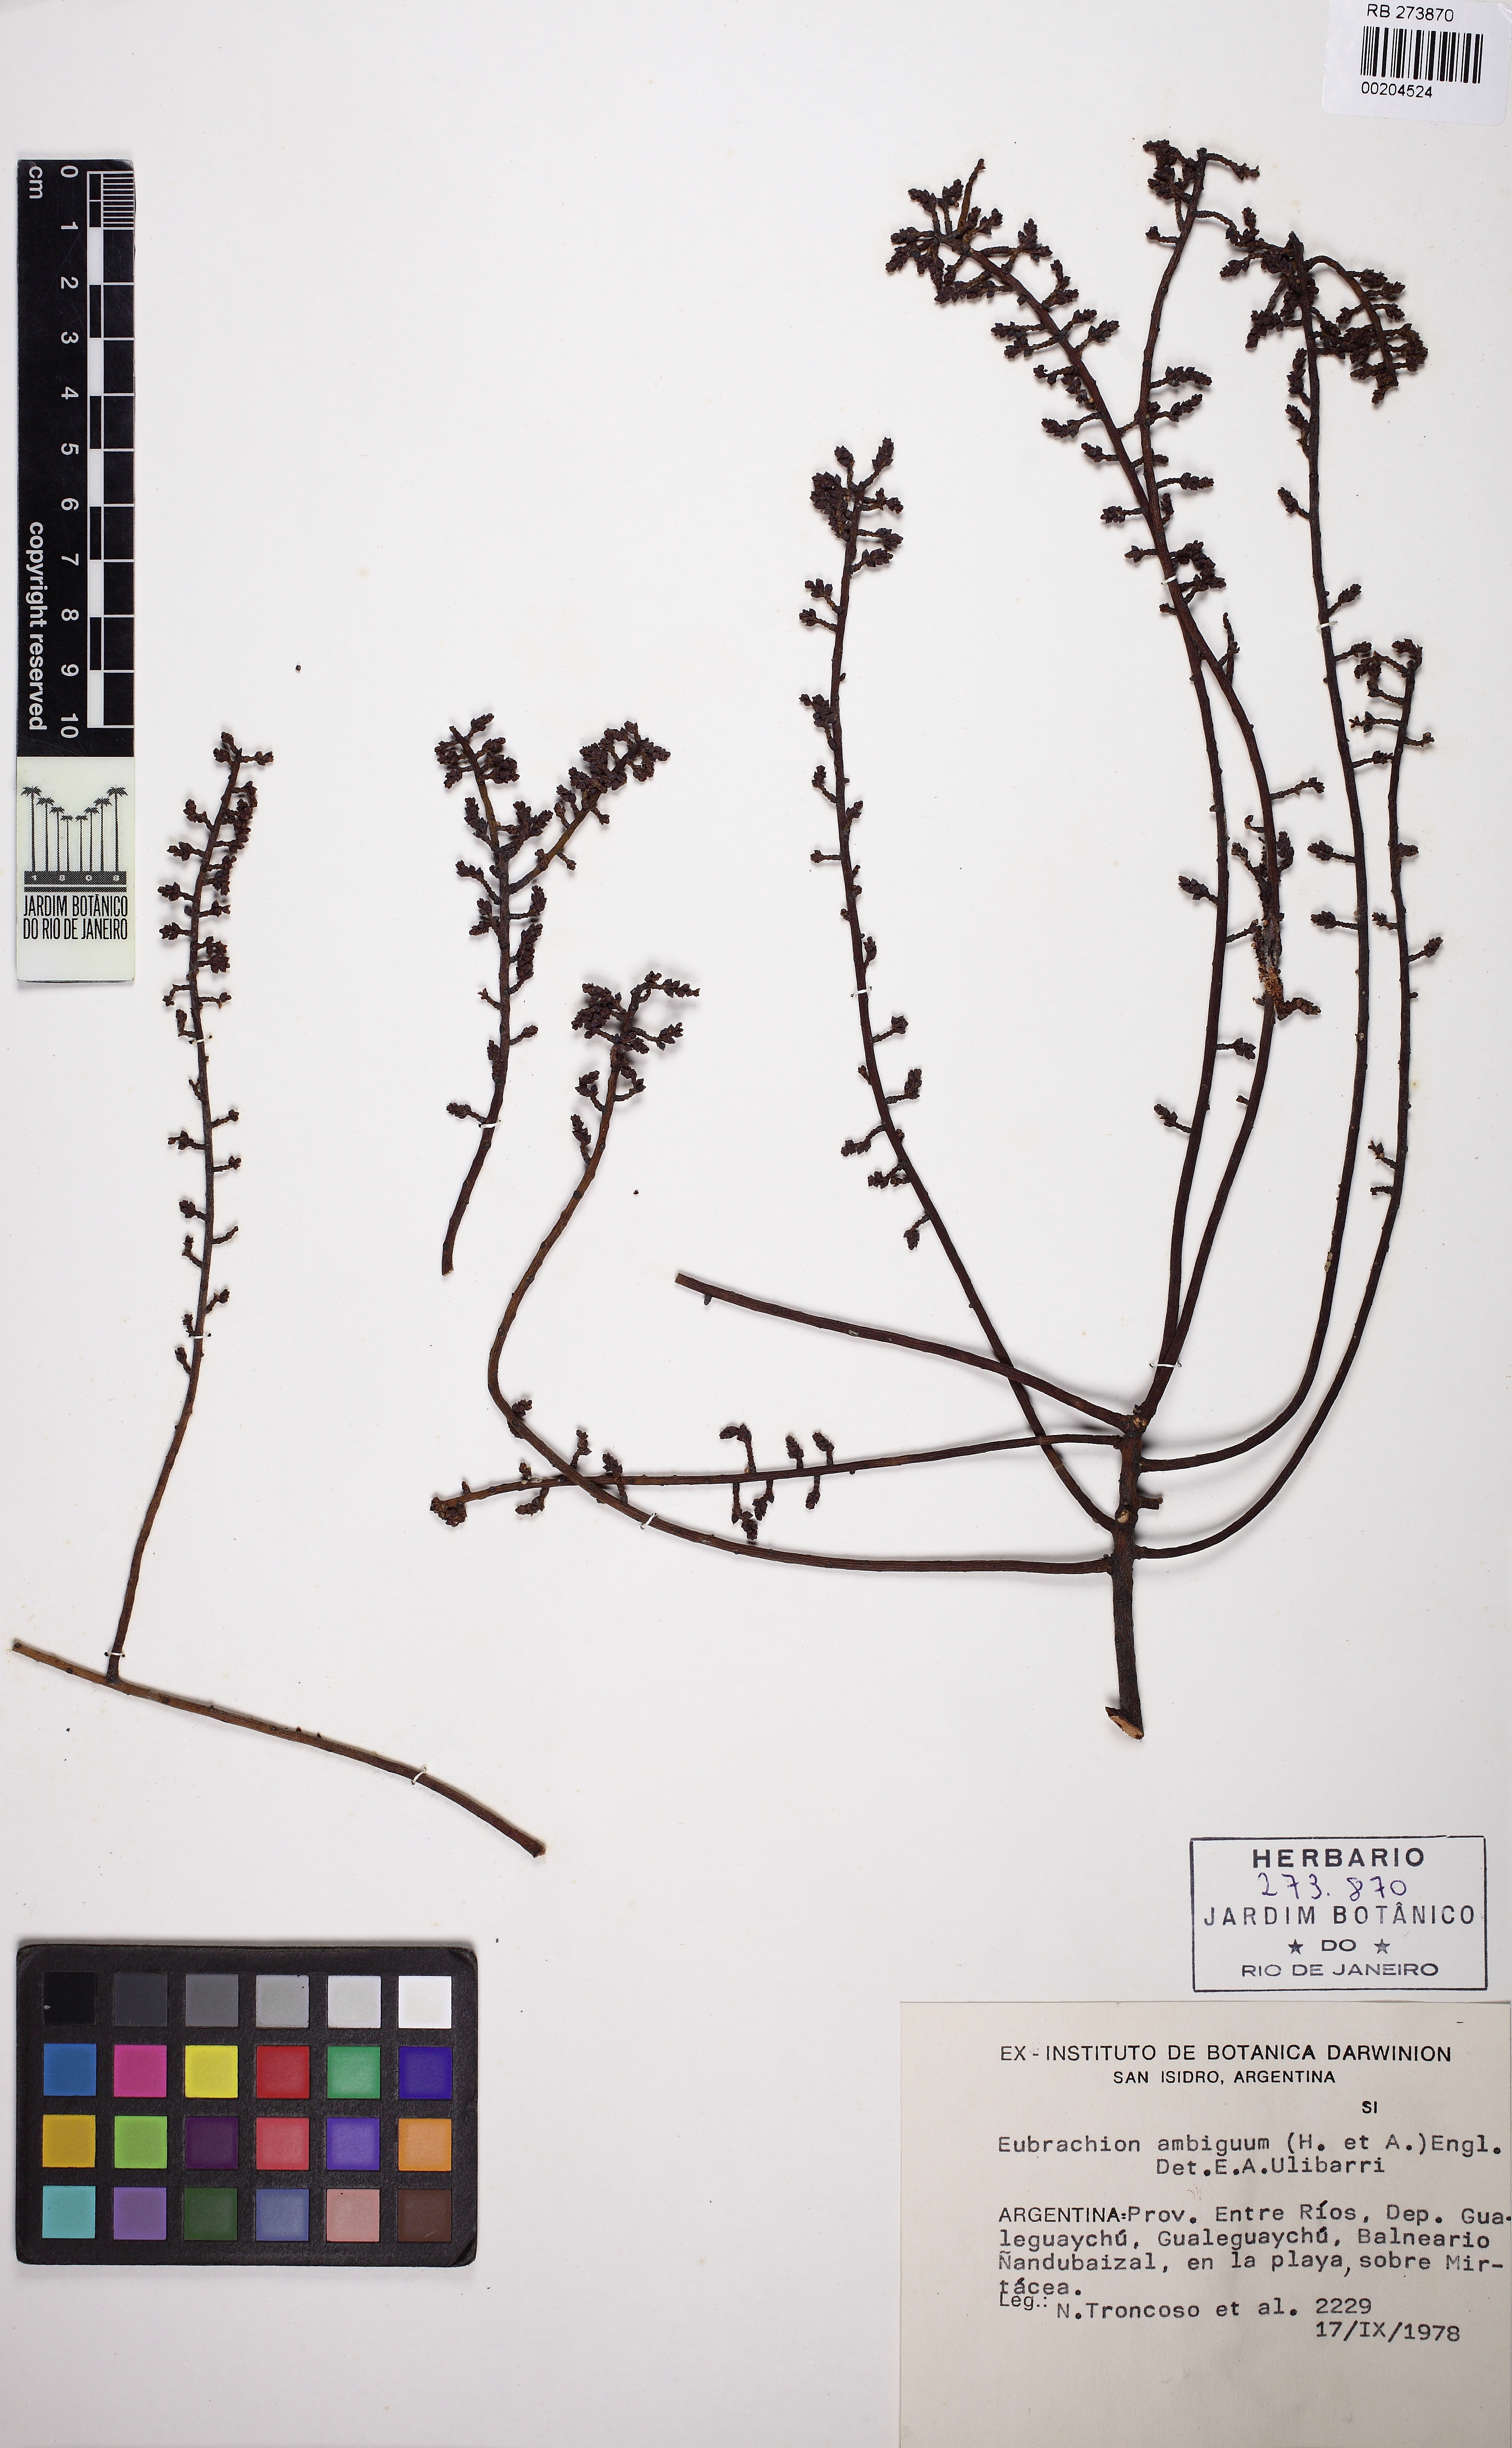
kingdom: Plantae
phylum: Tracheophyta
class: Magnoliopsida
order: Santalales
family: Santalaceae
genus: Eubrachion
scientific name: Eubrachion ambiguum
